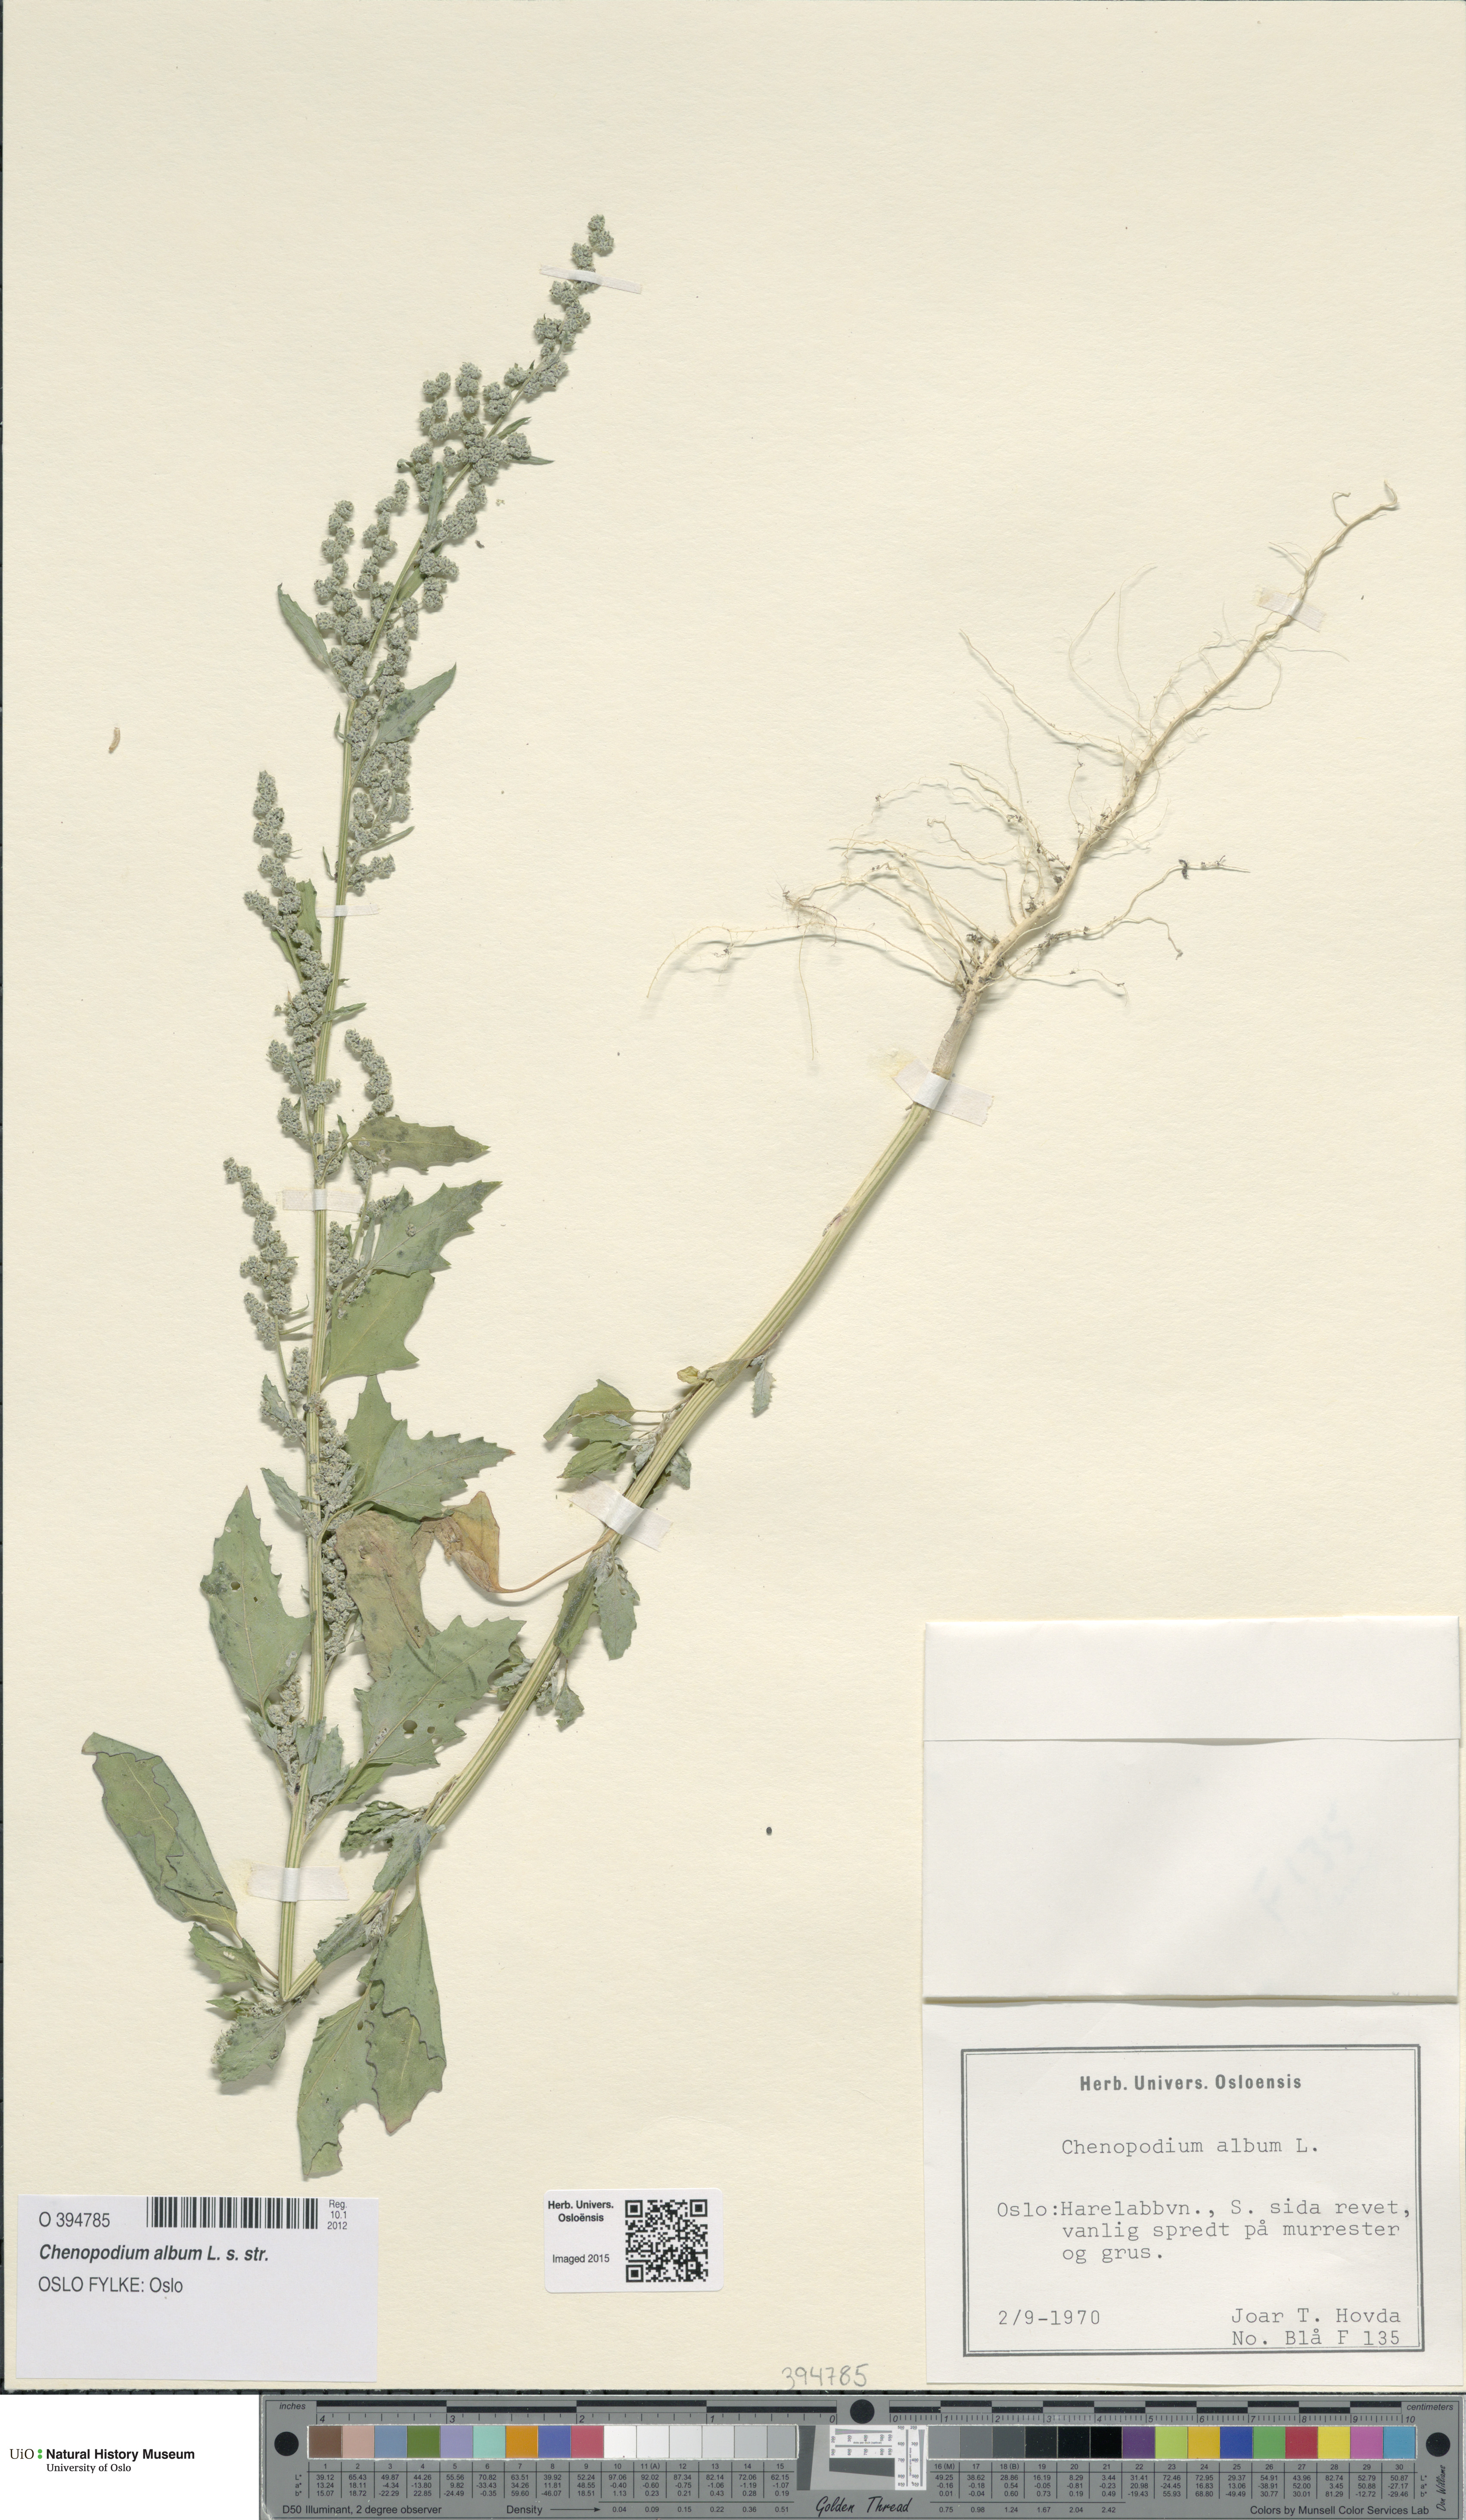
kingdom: Plantae
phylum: Tracheophyta
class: Magnoliopsida
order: Caryophyllales
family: Amaranthaceae
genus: Chenopodium
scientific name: Chenopodium album
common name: Fat-hen
